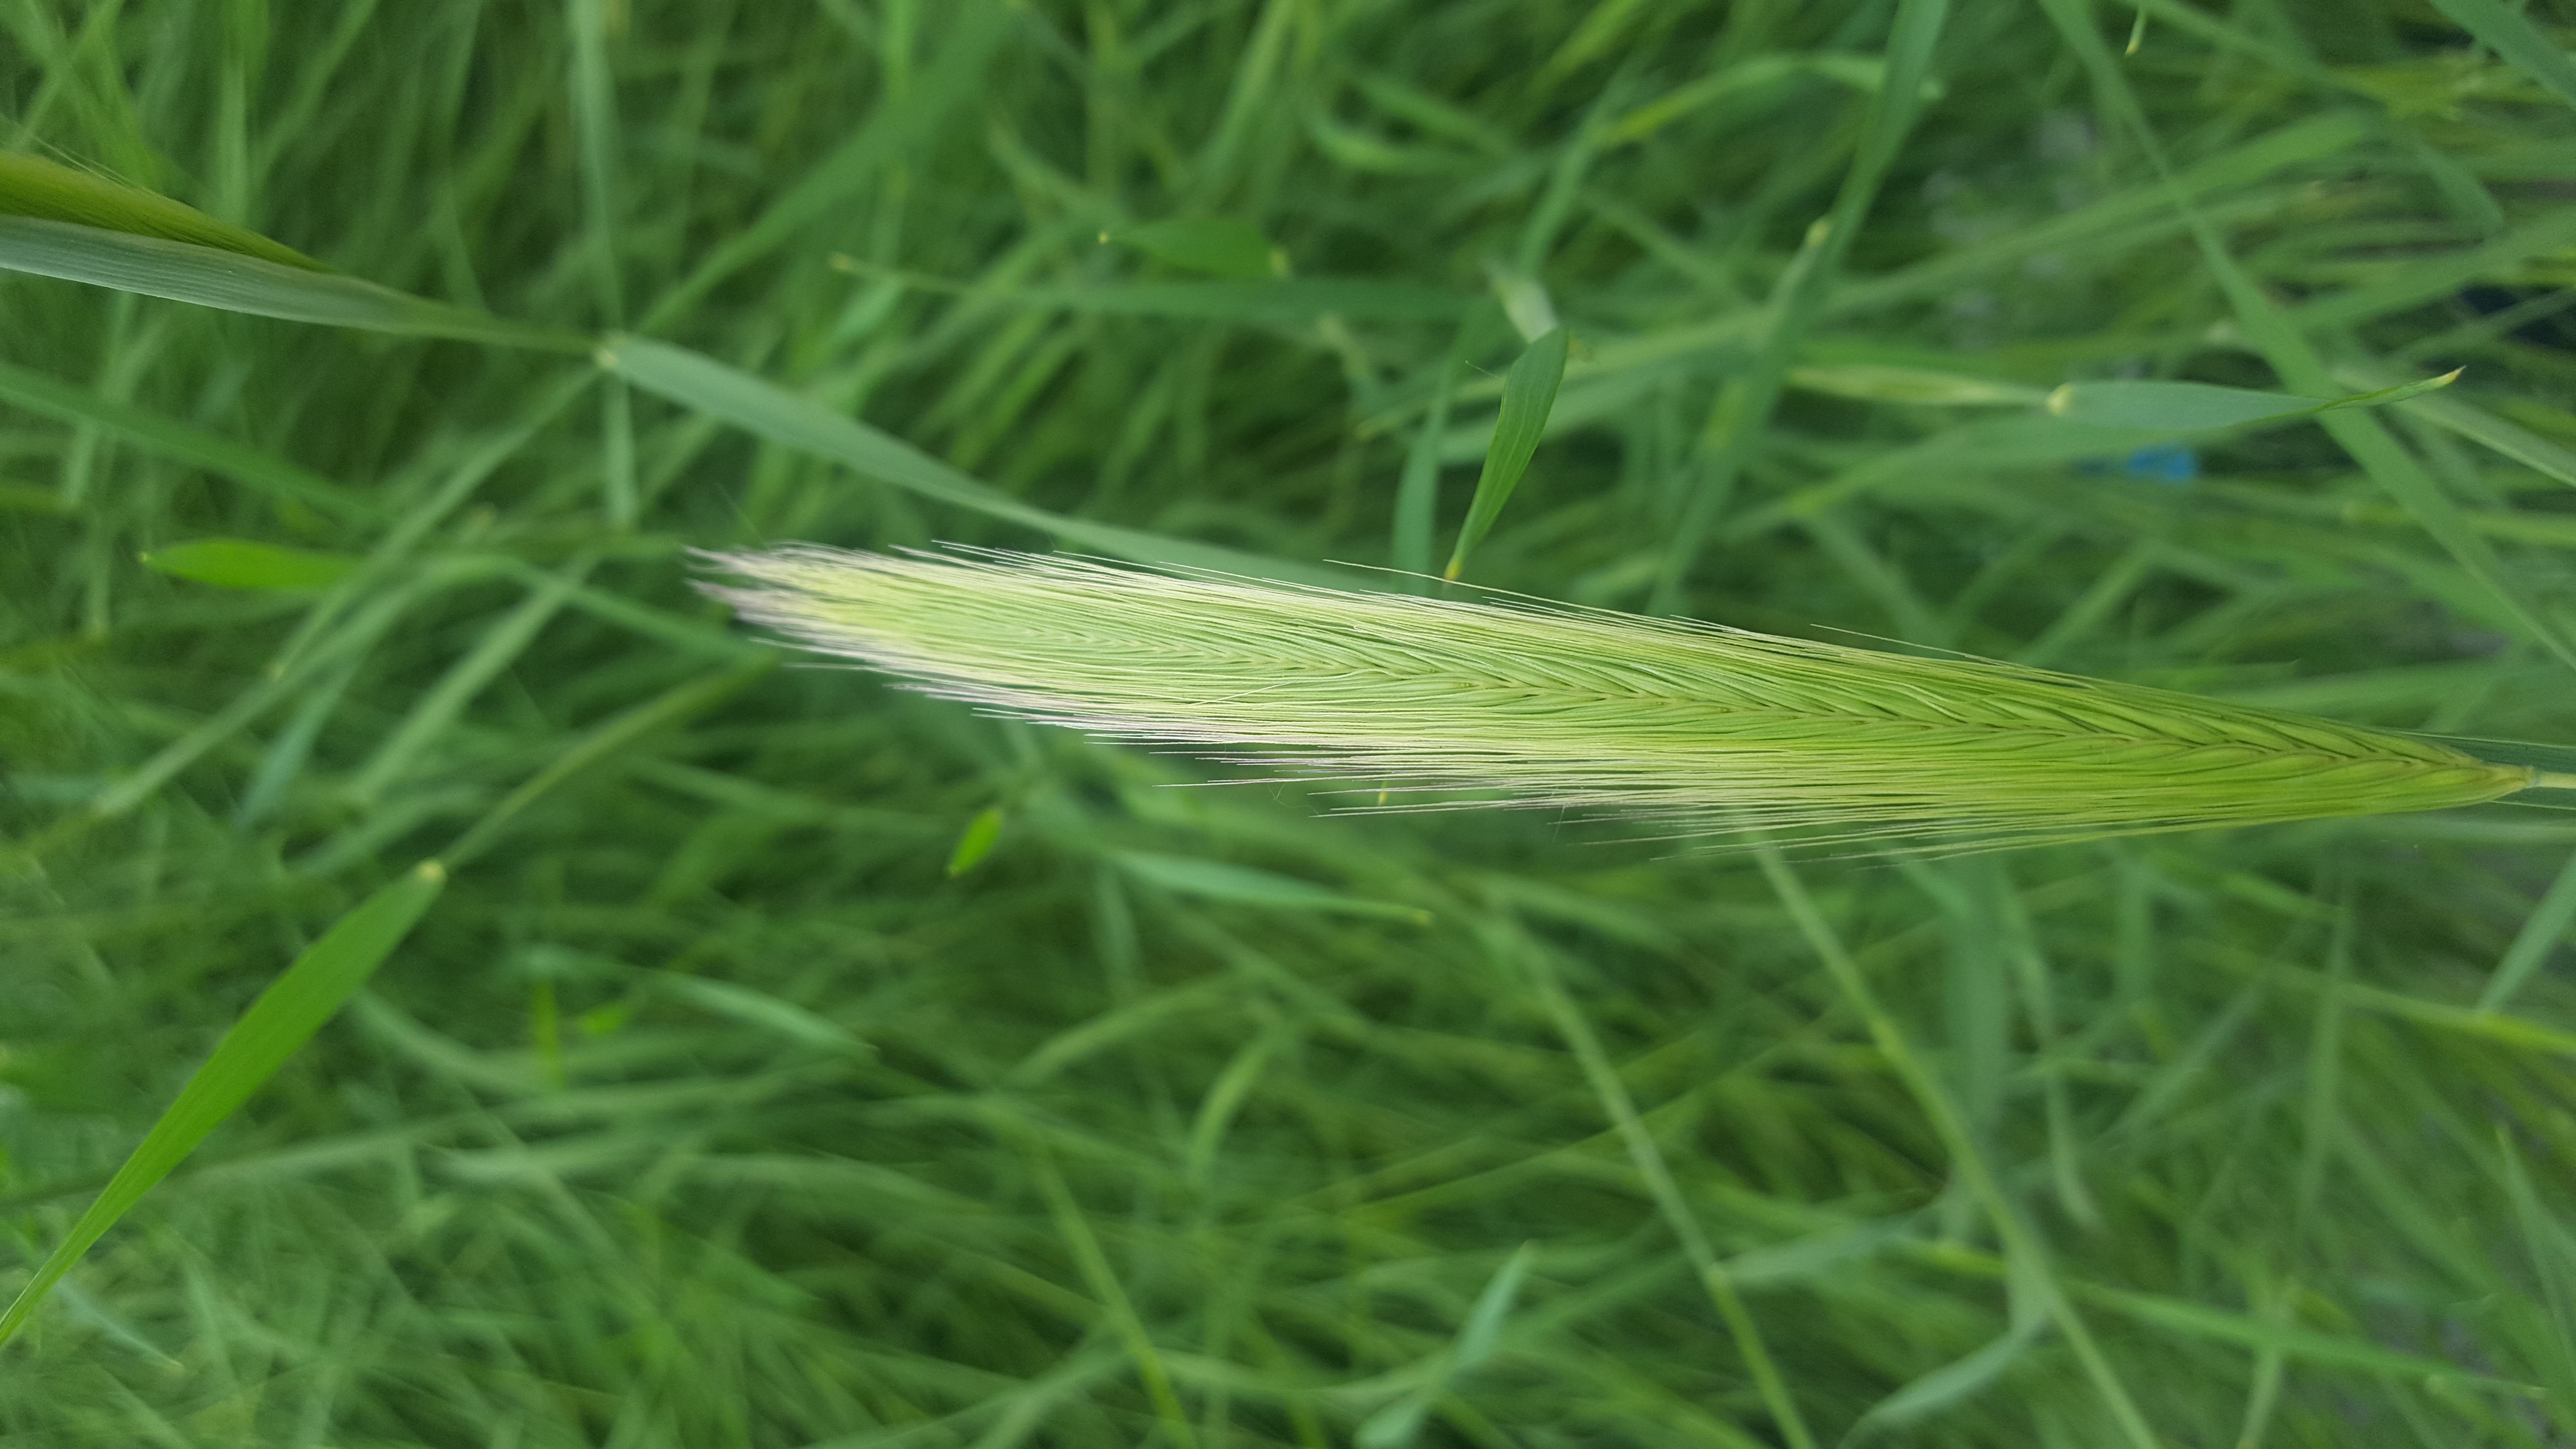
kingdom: Plantae
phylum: Tracheophyta
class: Liliopsida
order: Poales
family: Poaceae
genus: Hordeum
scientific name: Hordeum lechleri
